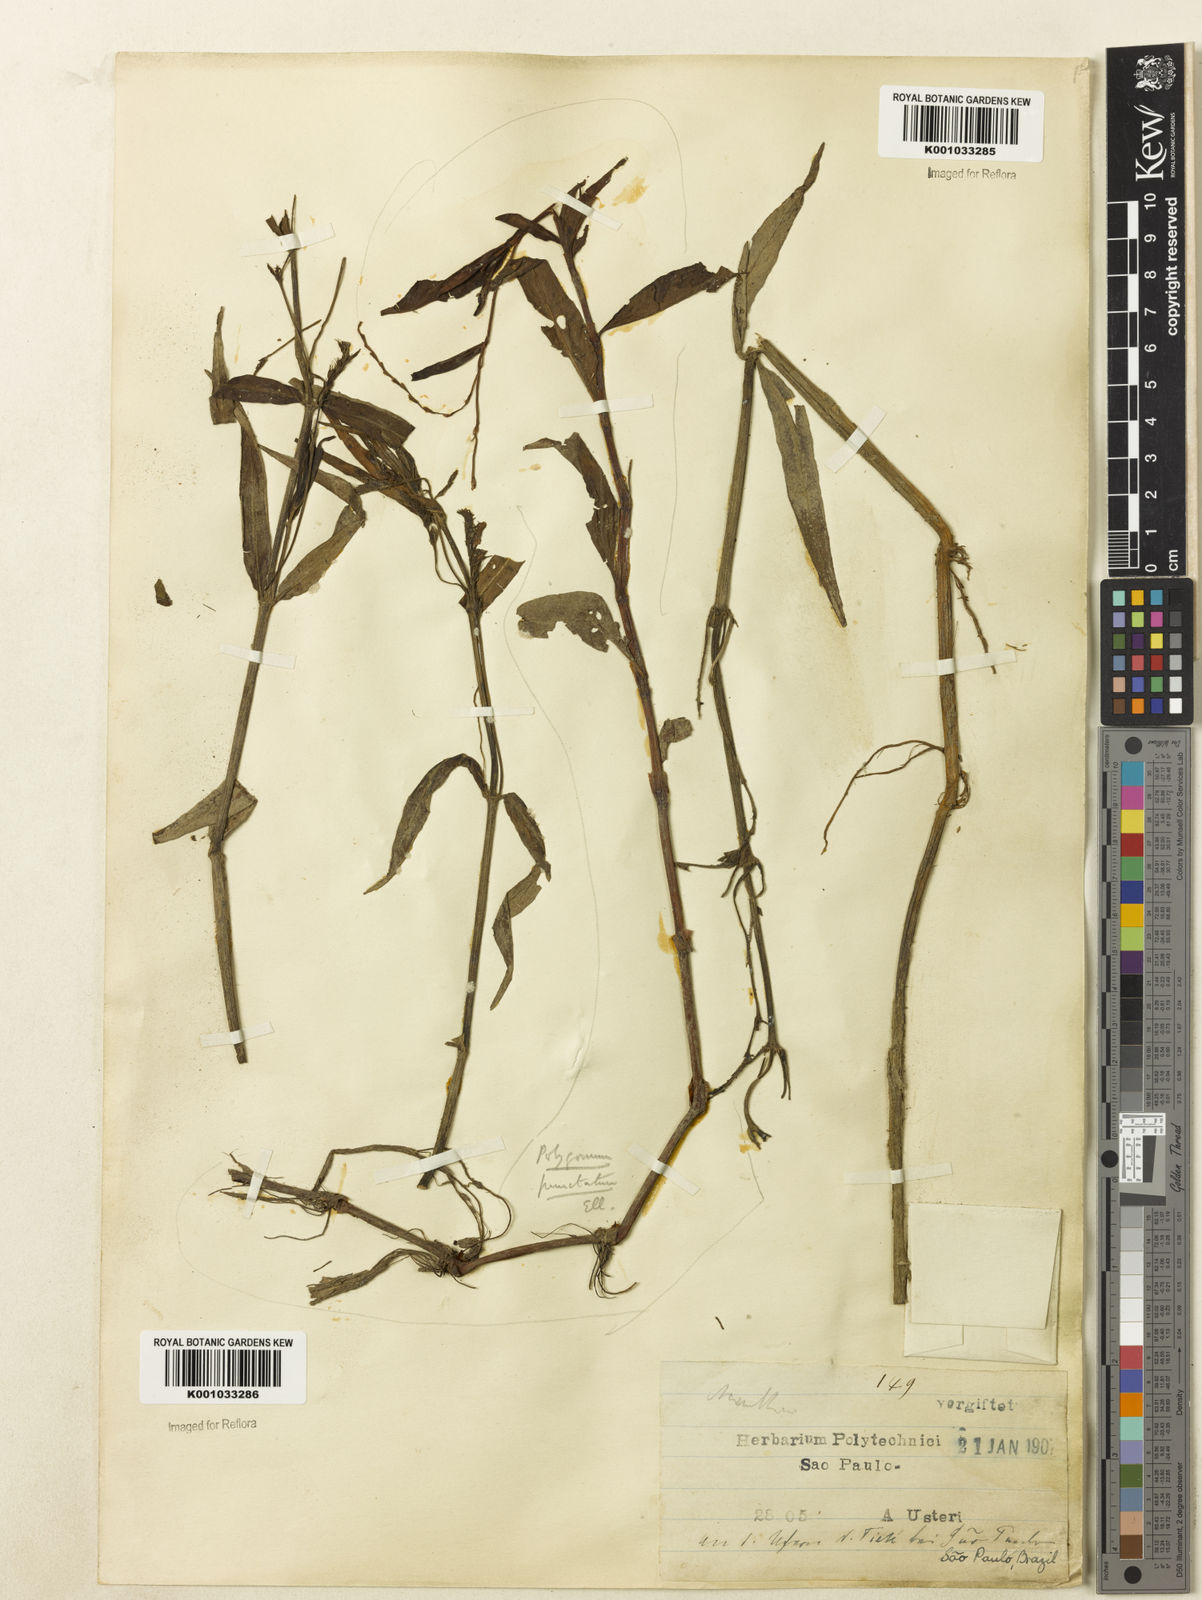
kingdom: Plantae
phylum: Tracheophyta
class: Magnoliopsida
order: Lamiales
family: Acanthaceae
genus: Dianthera
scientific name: Dianthera laevilinguis
